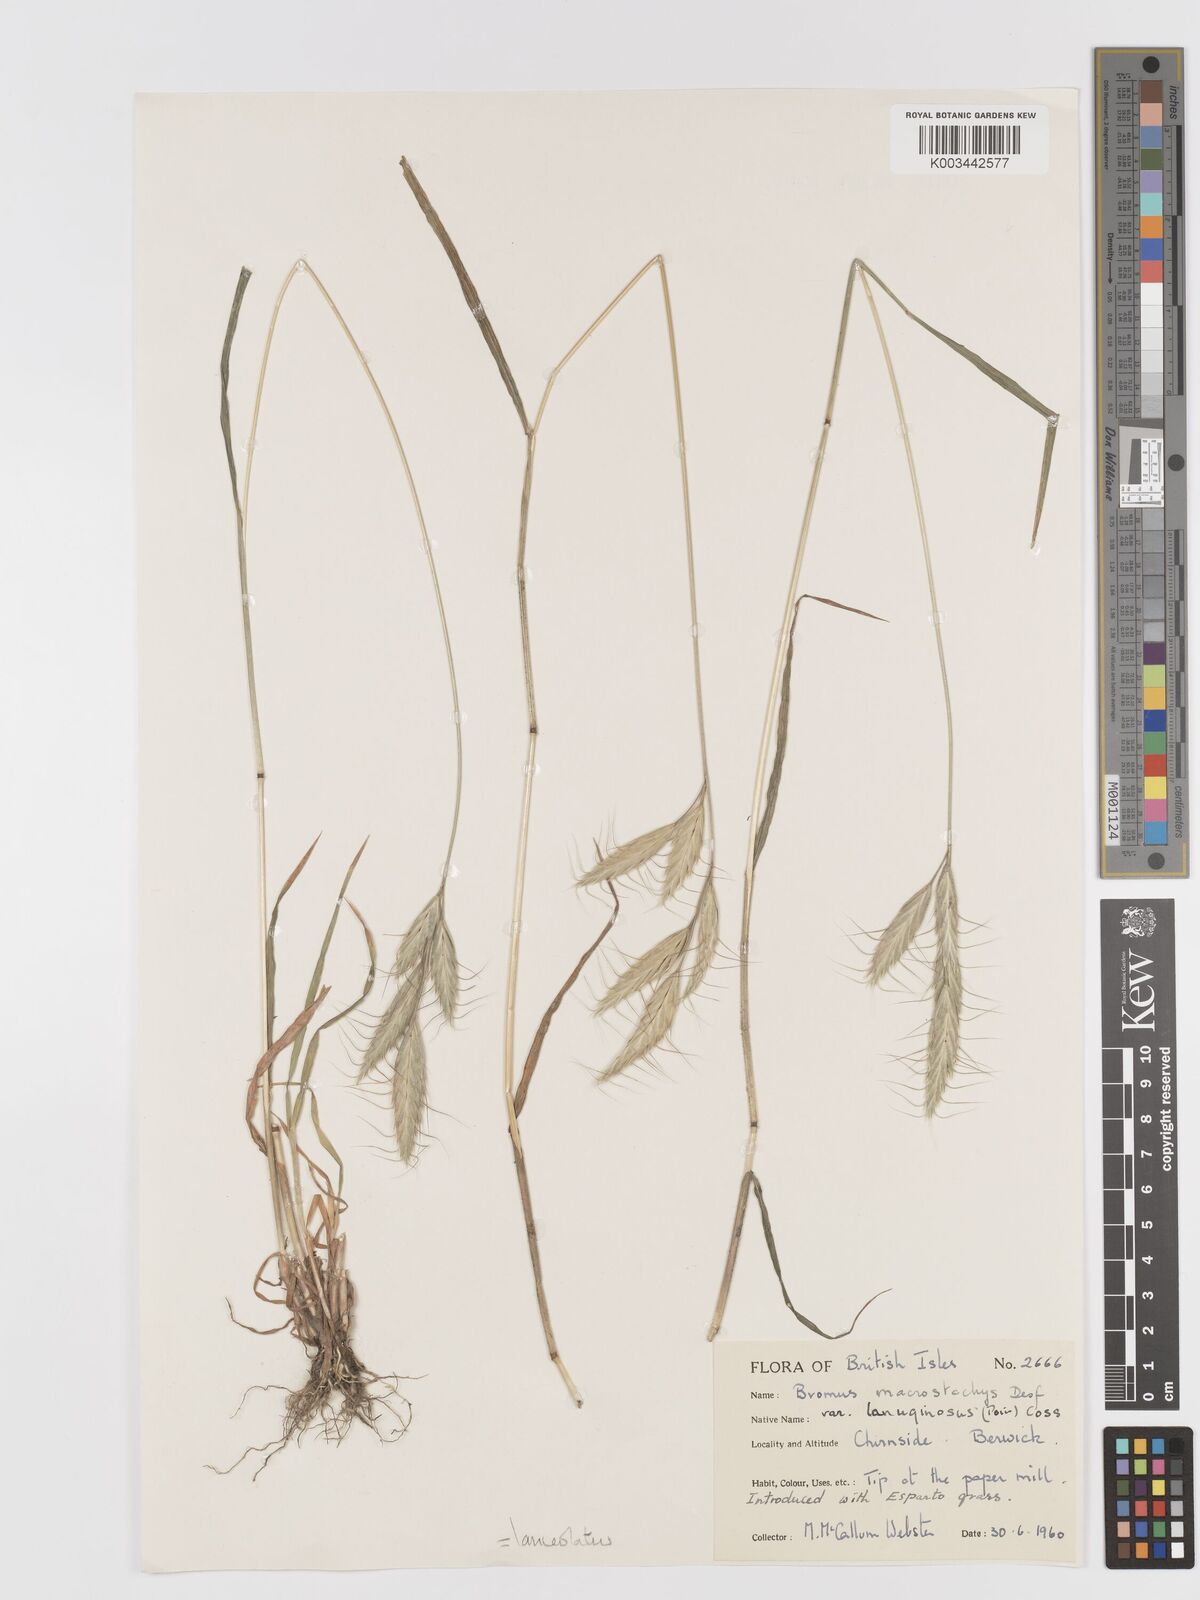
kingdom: Plantae
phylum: Tracheophyta
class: Liliopsida
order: Poales
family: Poaceae
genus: Bromus
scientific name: Bromus lanceolatus
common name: Mediterranean brome
